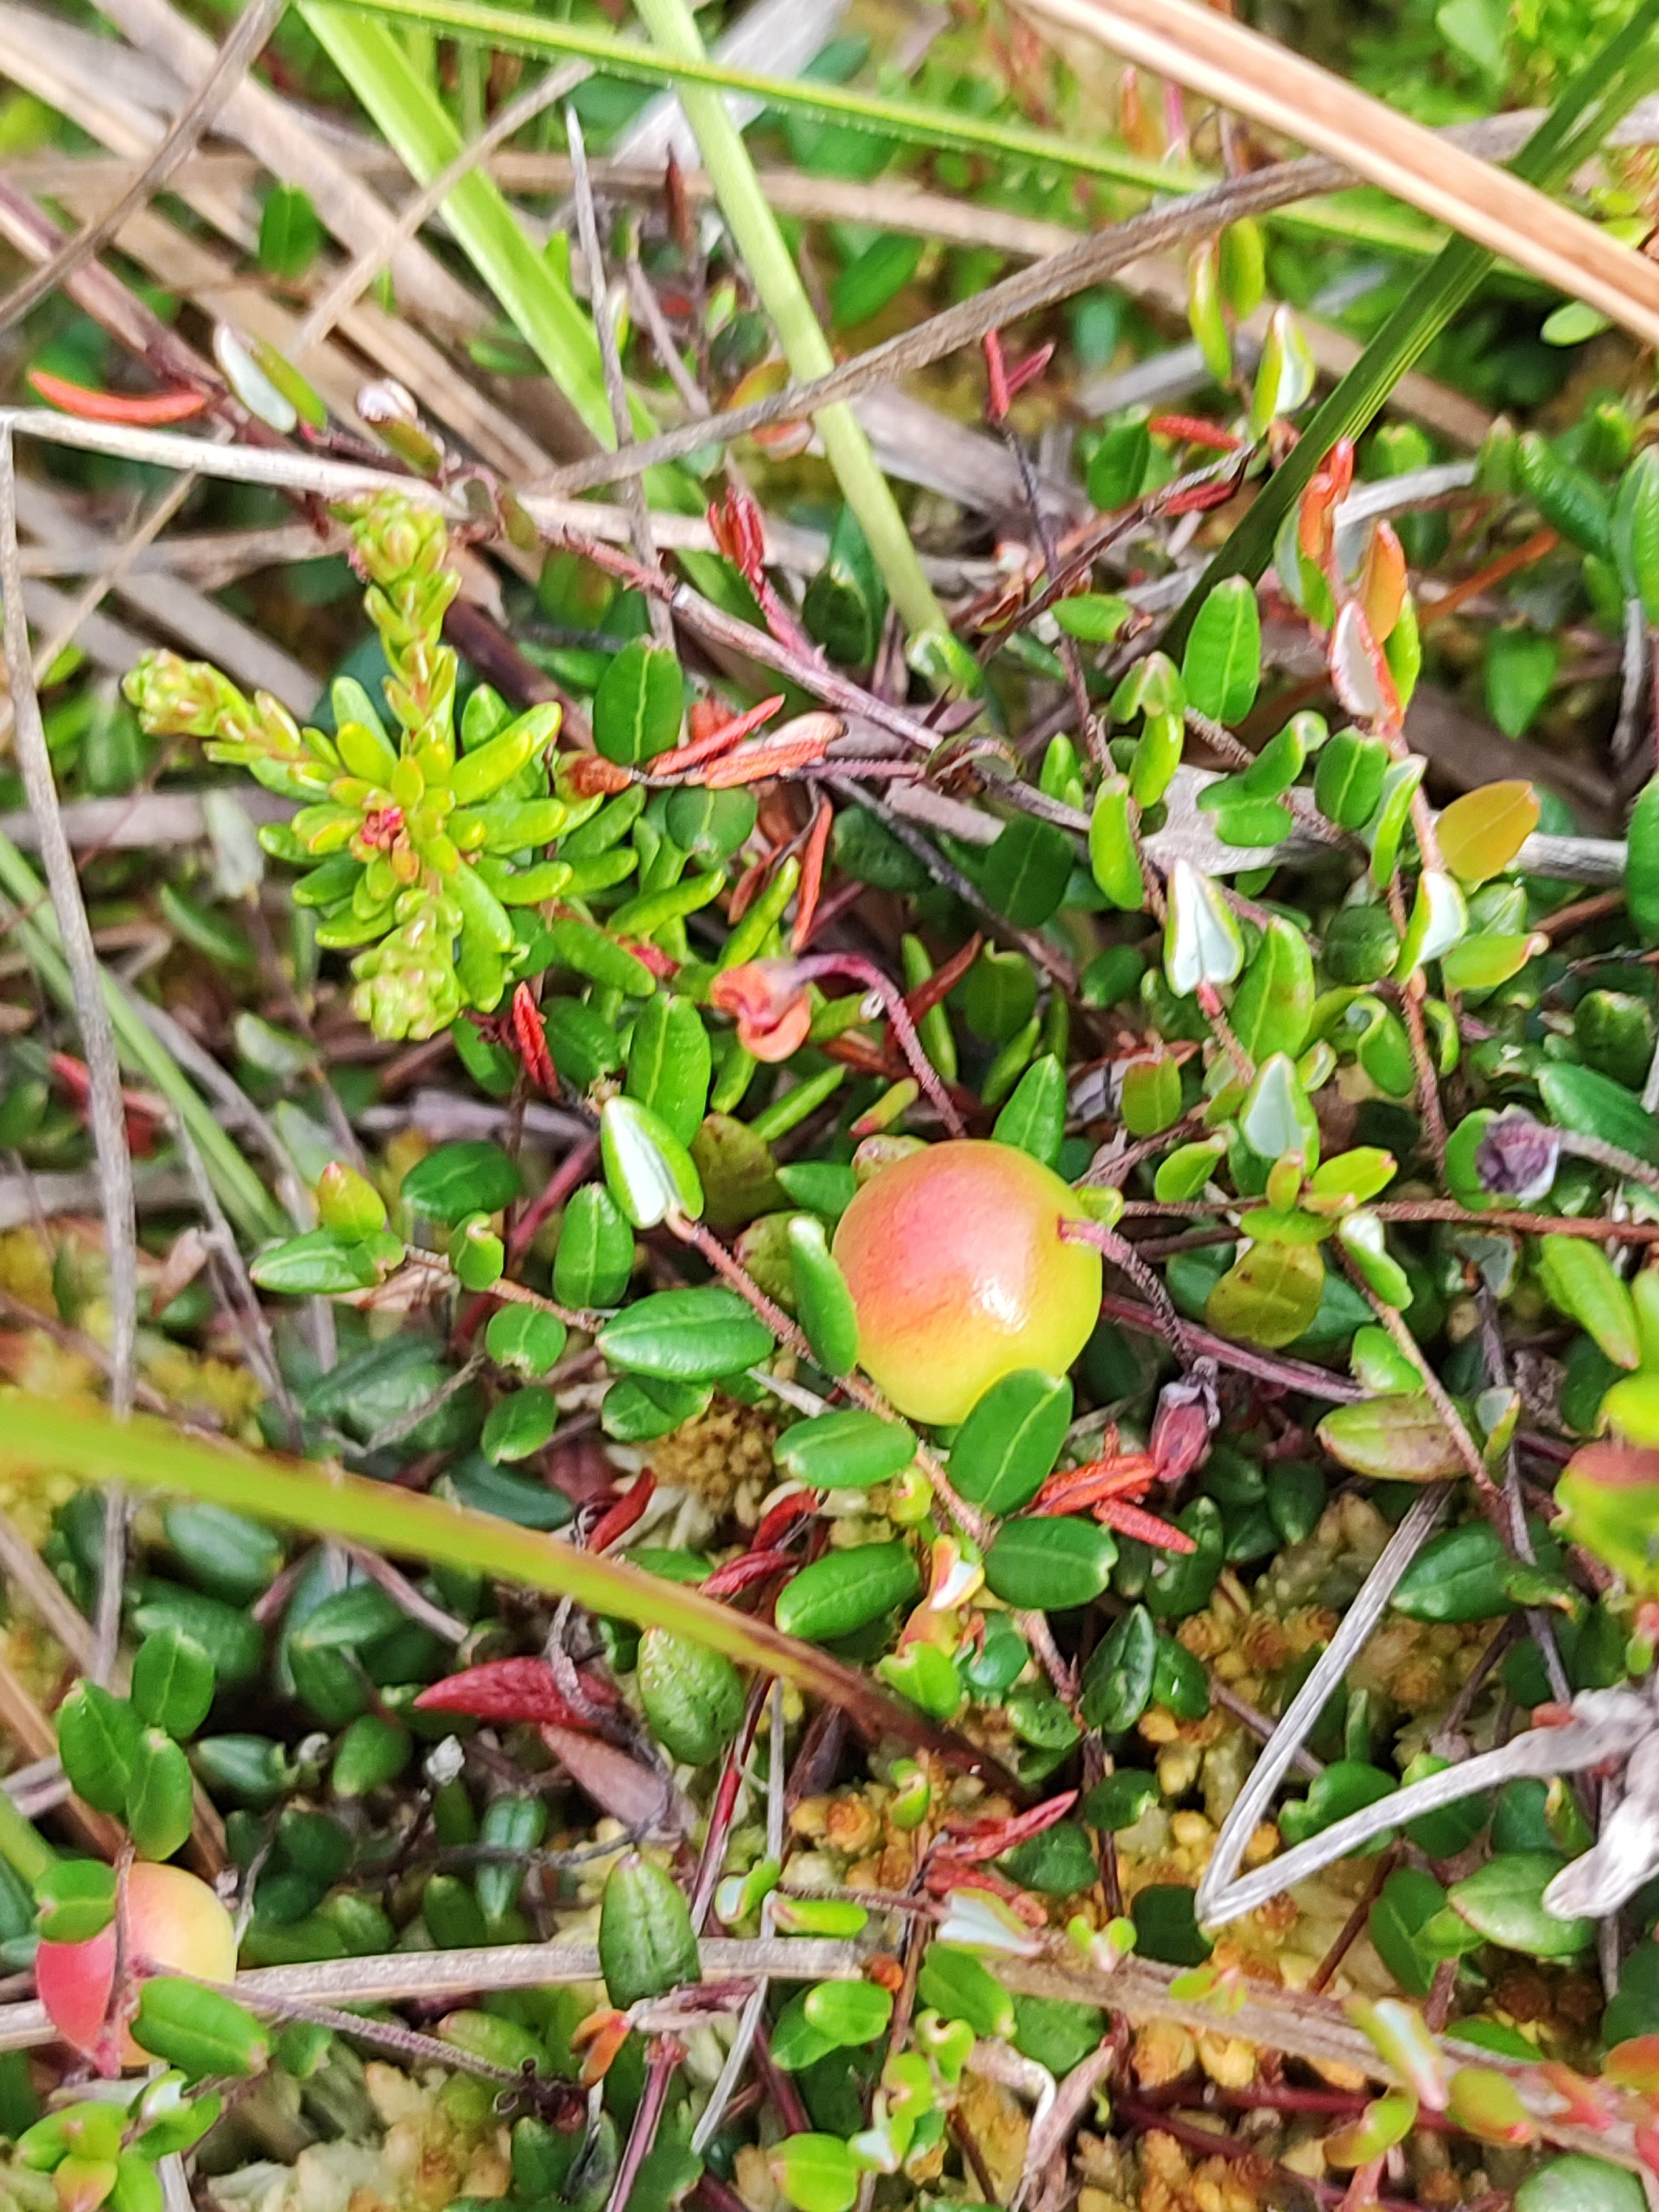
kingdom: Plantae
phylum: Tracheophyta
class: Magnoliopsida
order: Ericales
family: Ericaceae
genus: Vaccinium
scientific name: Vaccinium oxycoccos
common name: Tranebær
